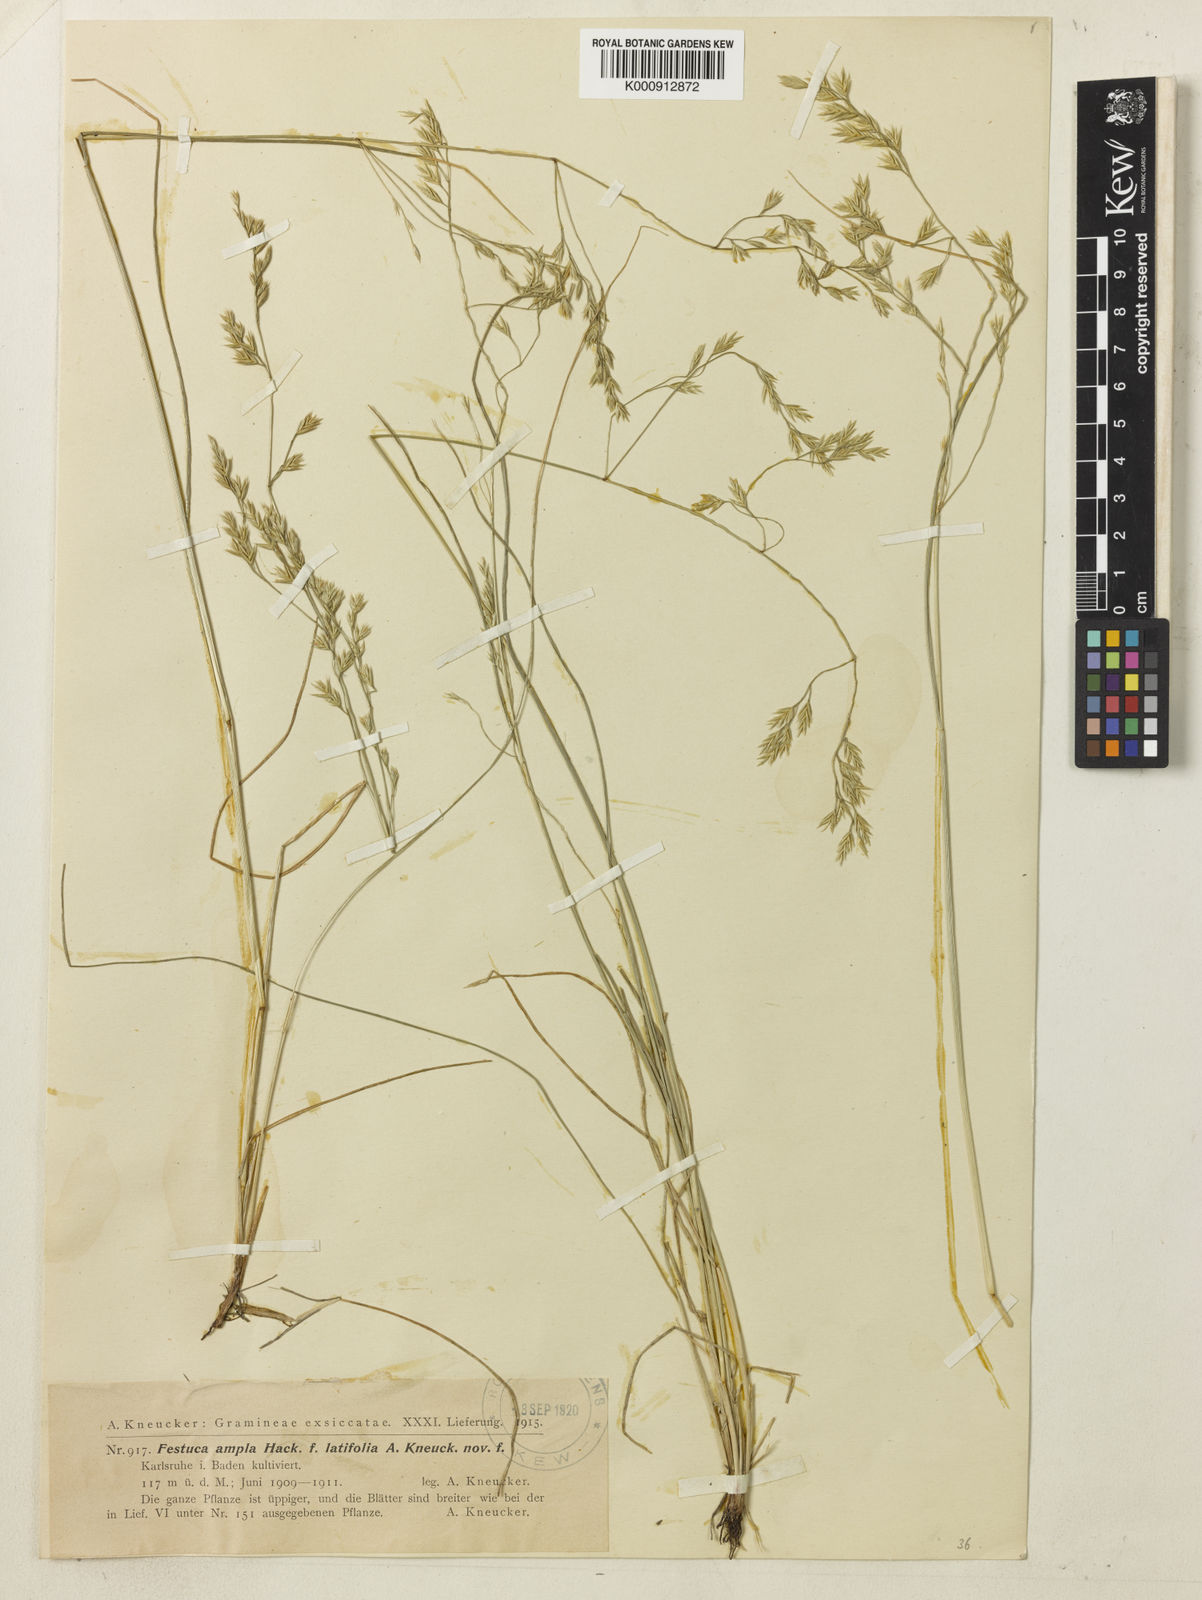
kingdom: Plantae
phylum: Tracheophyta
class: Liliopsida
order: Poales
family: Poaceae
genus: Festuca
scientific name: Festuca ampla
